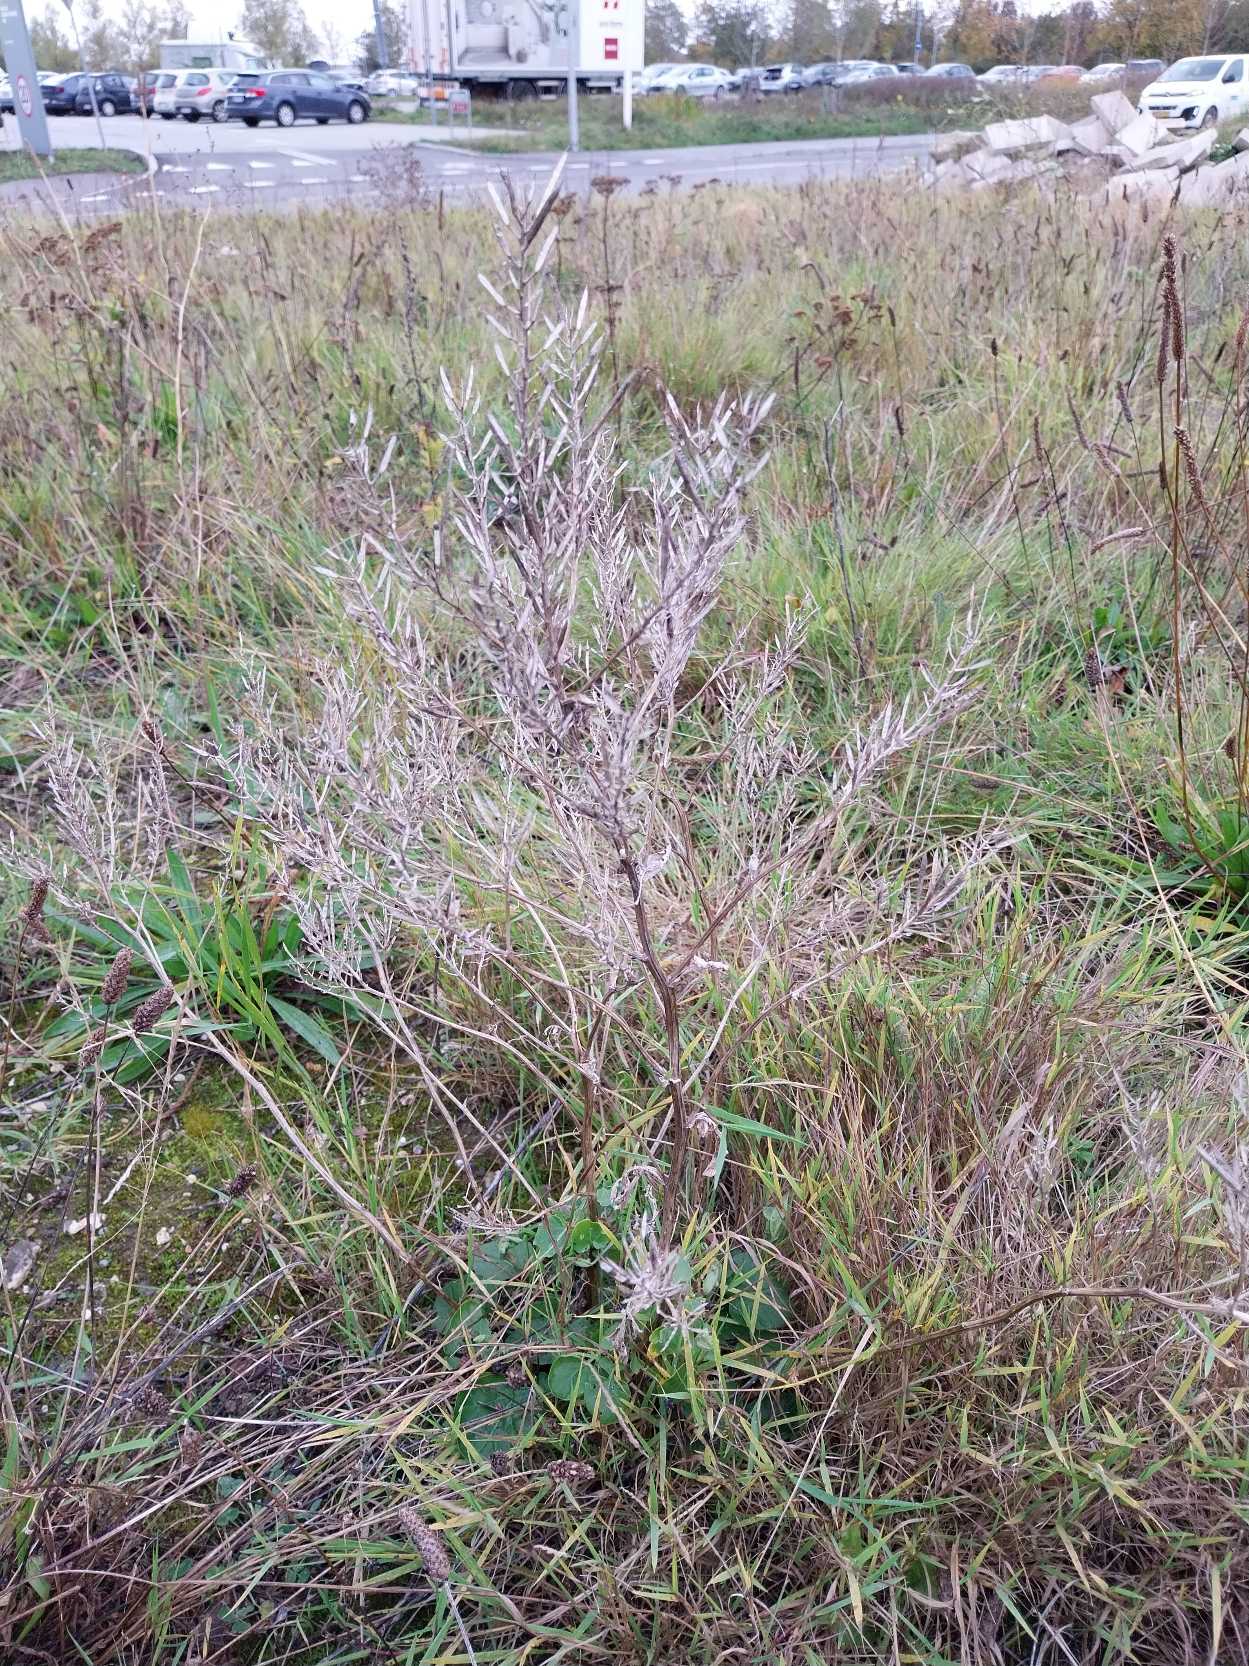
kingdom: Plantae
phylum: Tracheophyta
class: Magnoliopsida
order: Brassicales
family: Brassicaceae
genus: Barbarea
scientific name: Barbarea vulgaris
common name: Udspærret vinterkarse
